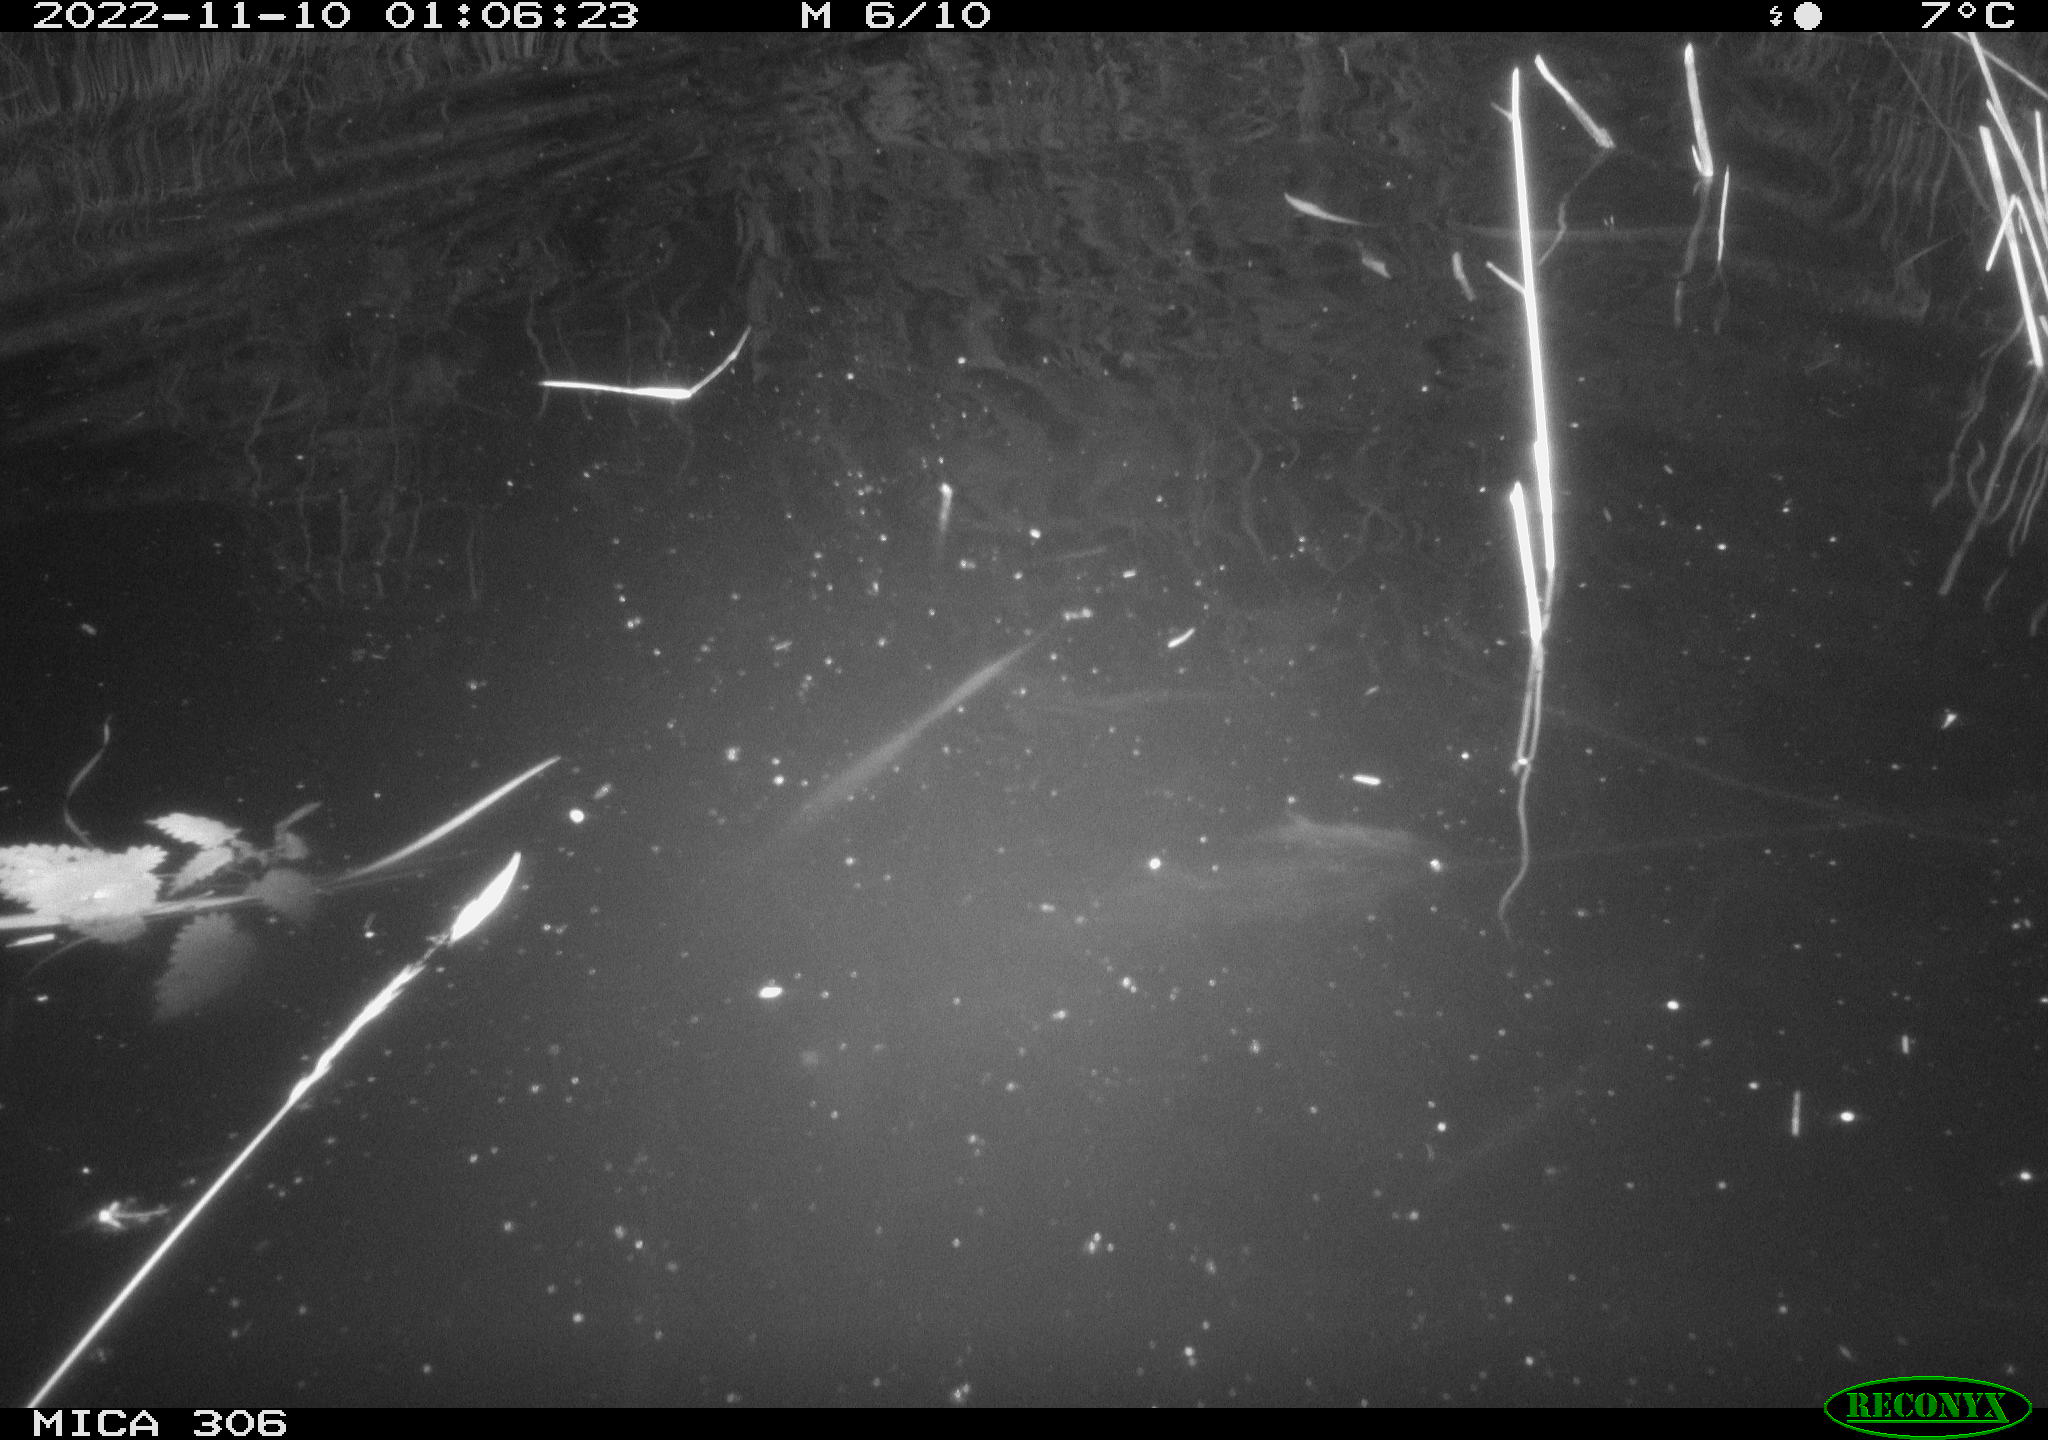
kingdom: Animalia
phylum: Chordata
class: Mammalia
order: Rodentia
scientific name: Rodentia
